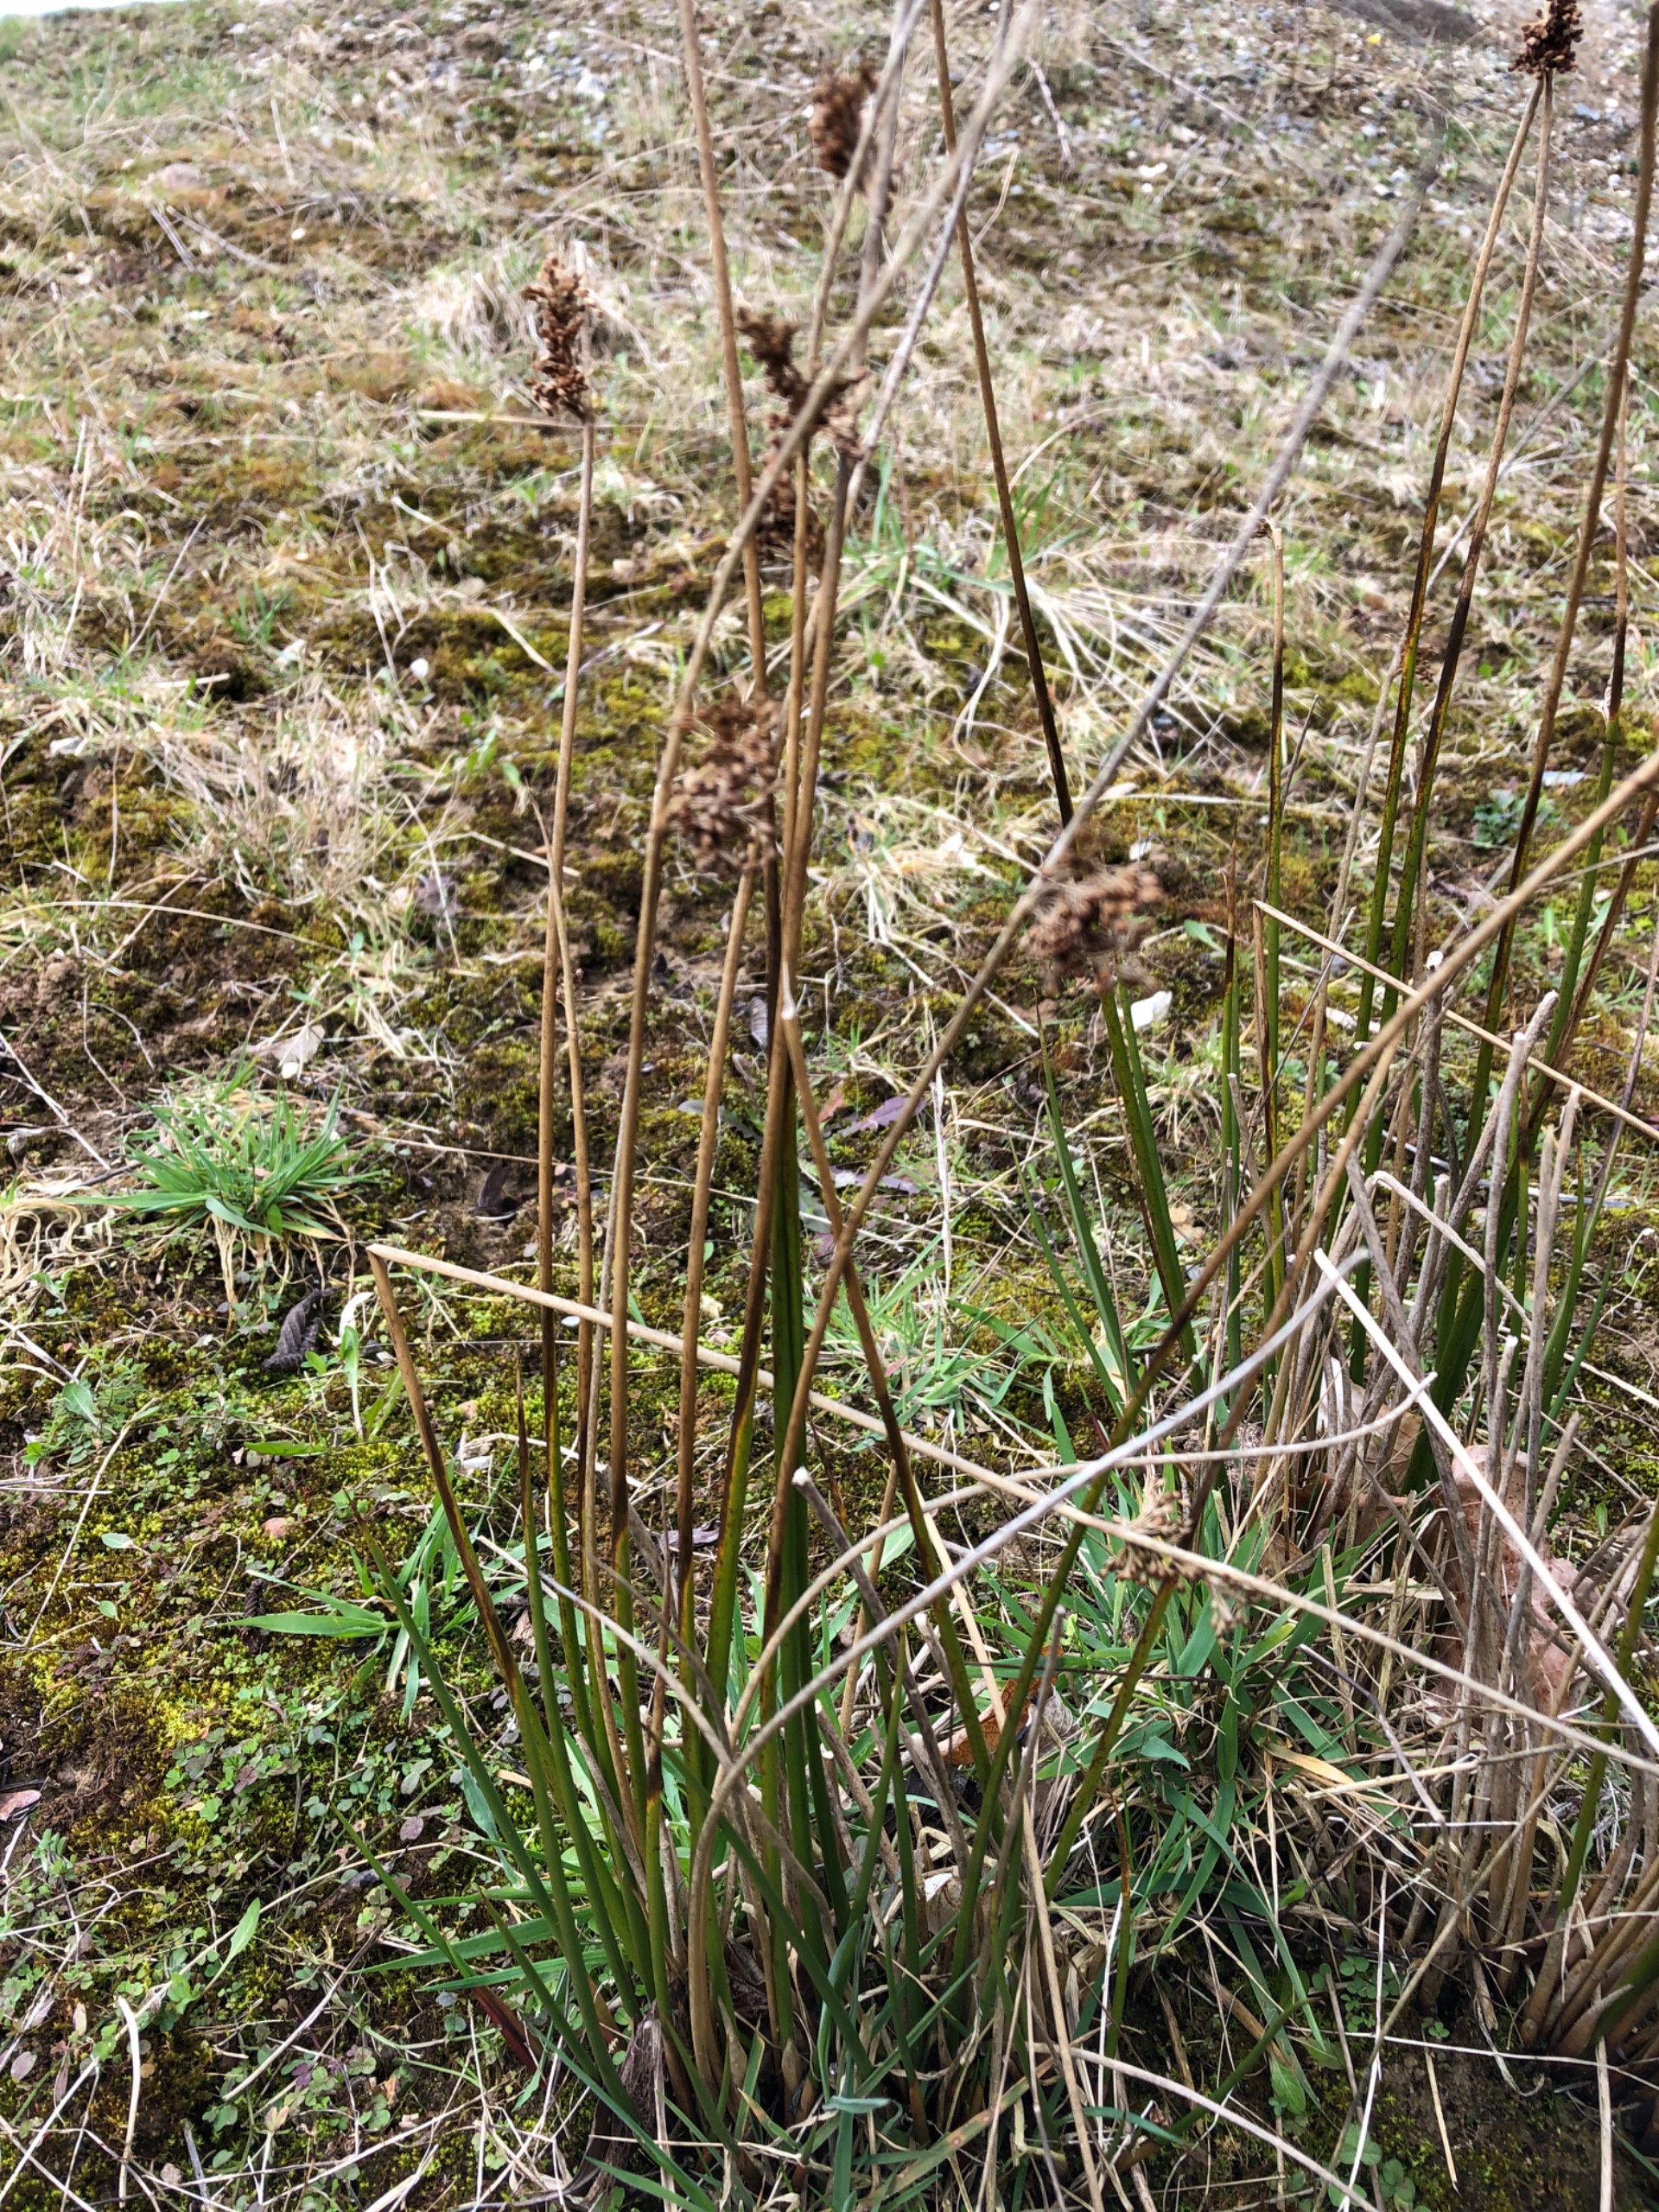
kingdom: Plantae
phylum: Tracheophyta
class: Liliopsida
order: Poales
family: Juncaceae
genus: Juncus
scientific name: Juncus effusus
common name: Lyse-siv
